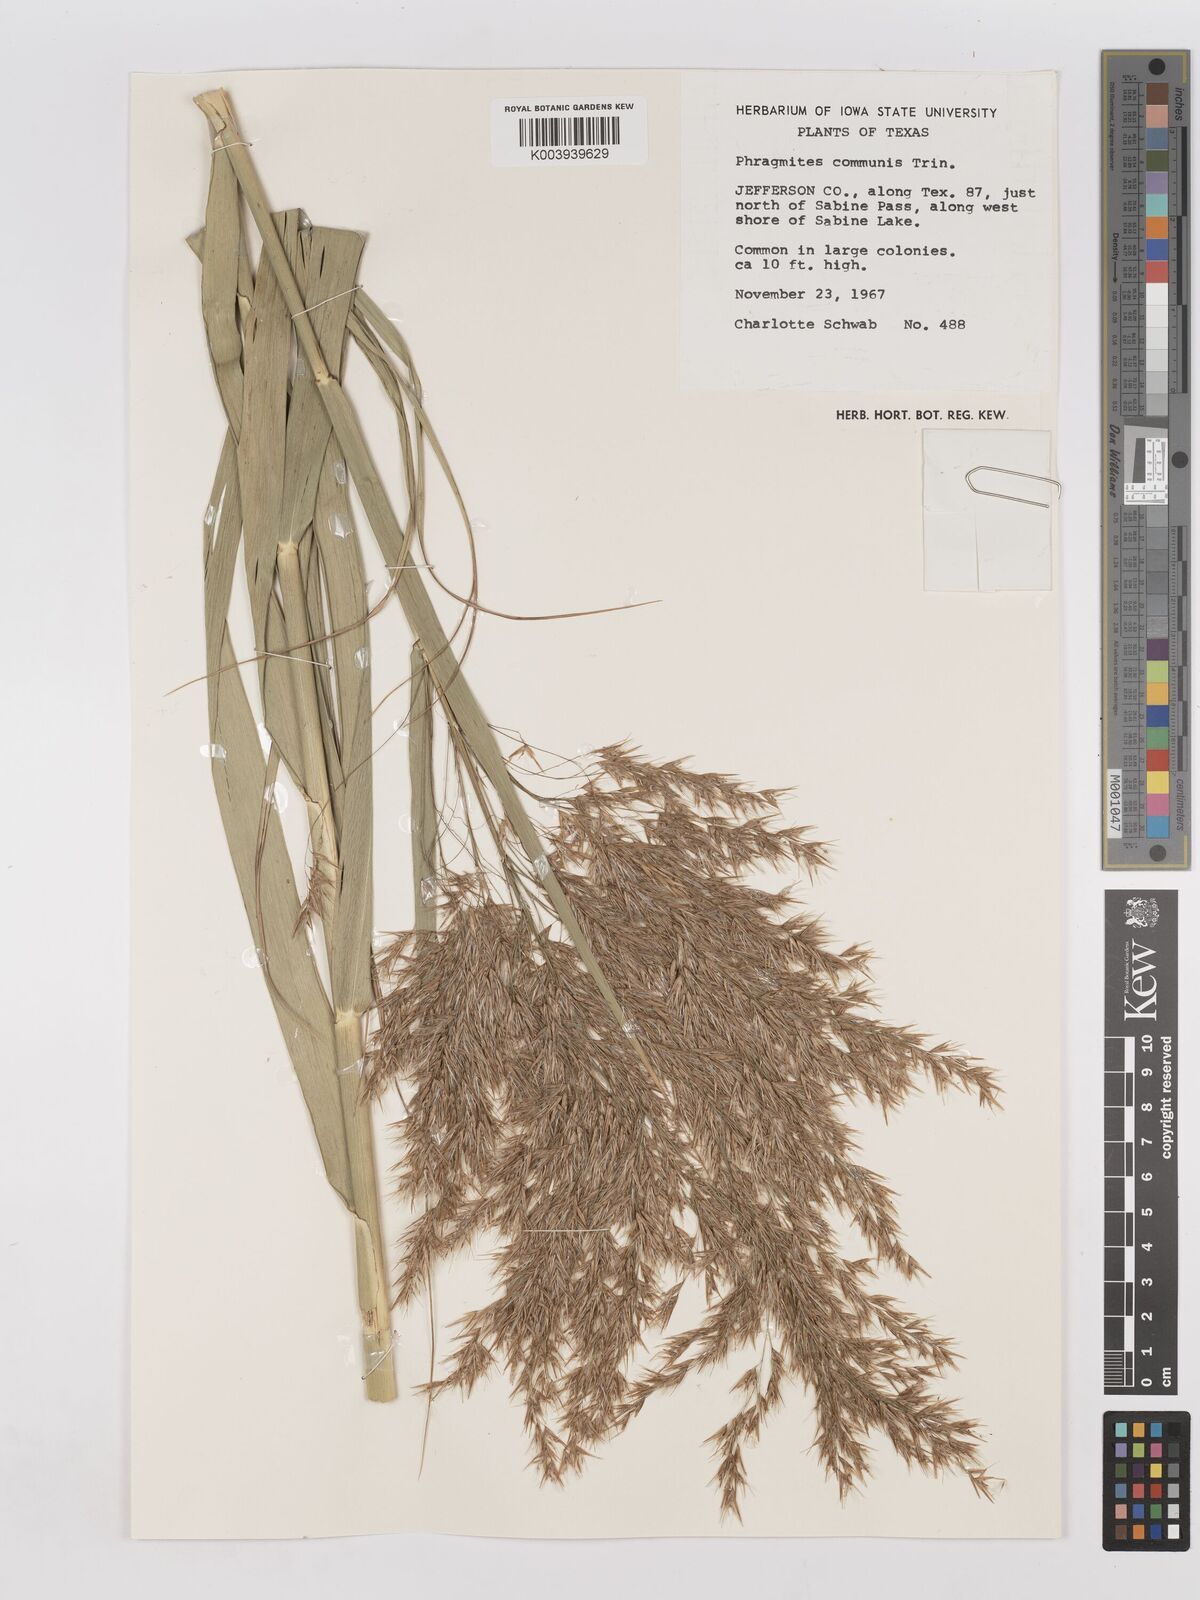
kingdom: Plantae
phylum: Tracheophyta
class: Liliopsida
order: Poales
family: Poaceae
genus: Phragmites
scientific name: Phragmites australis
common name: Common reed
